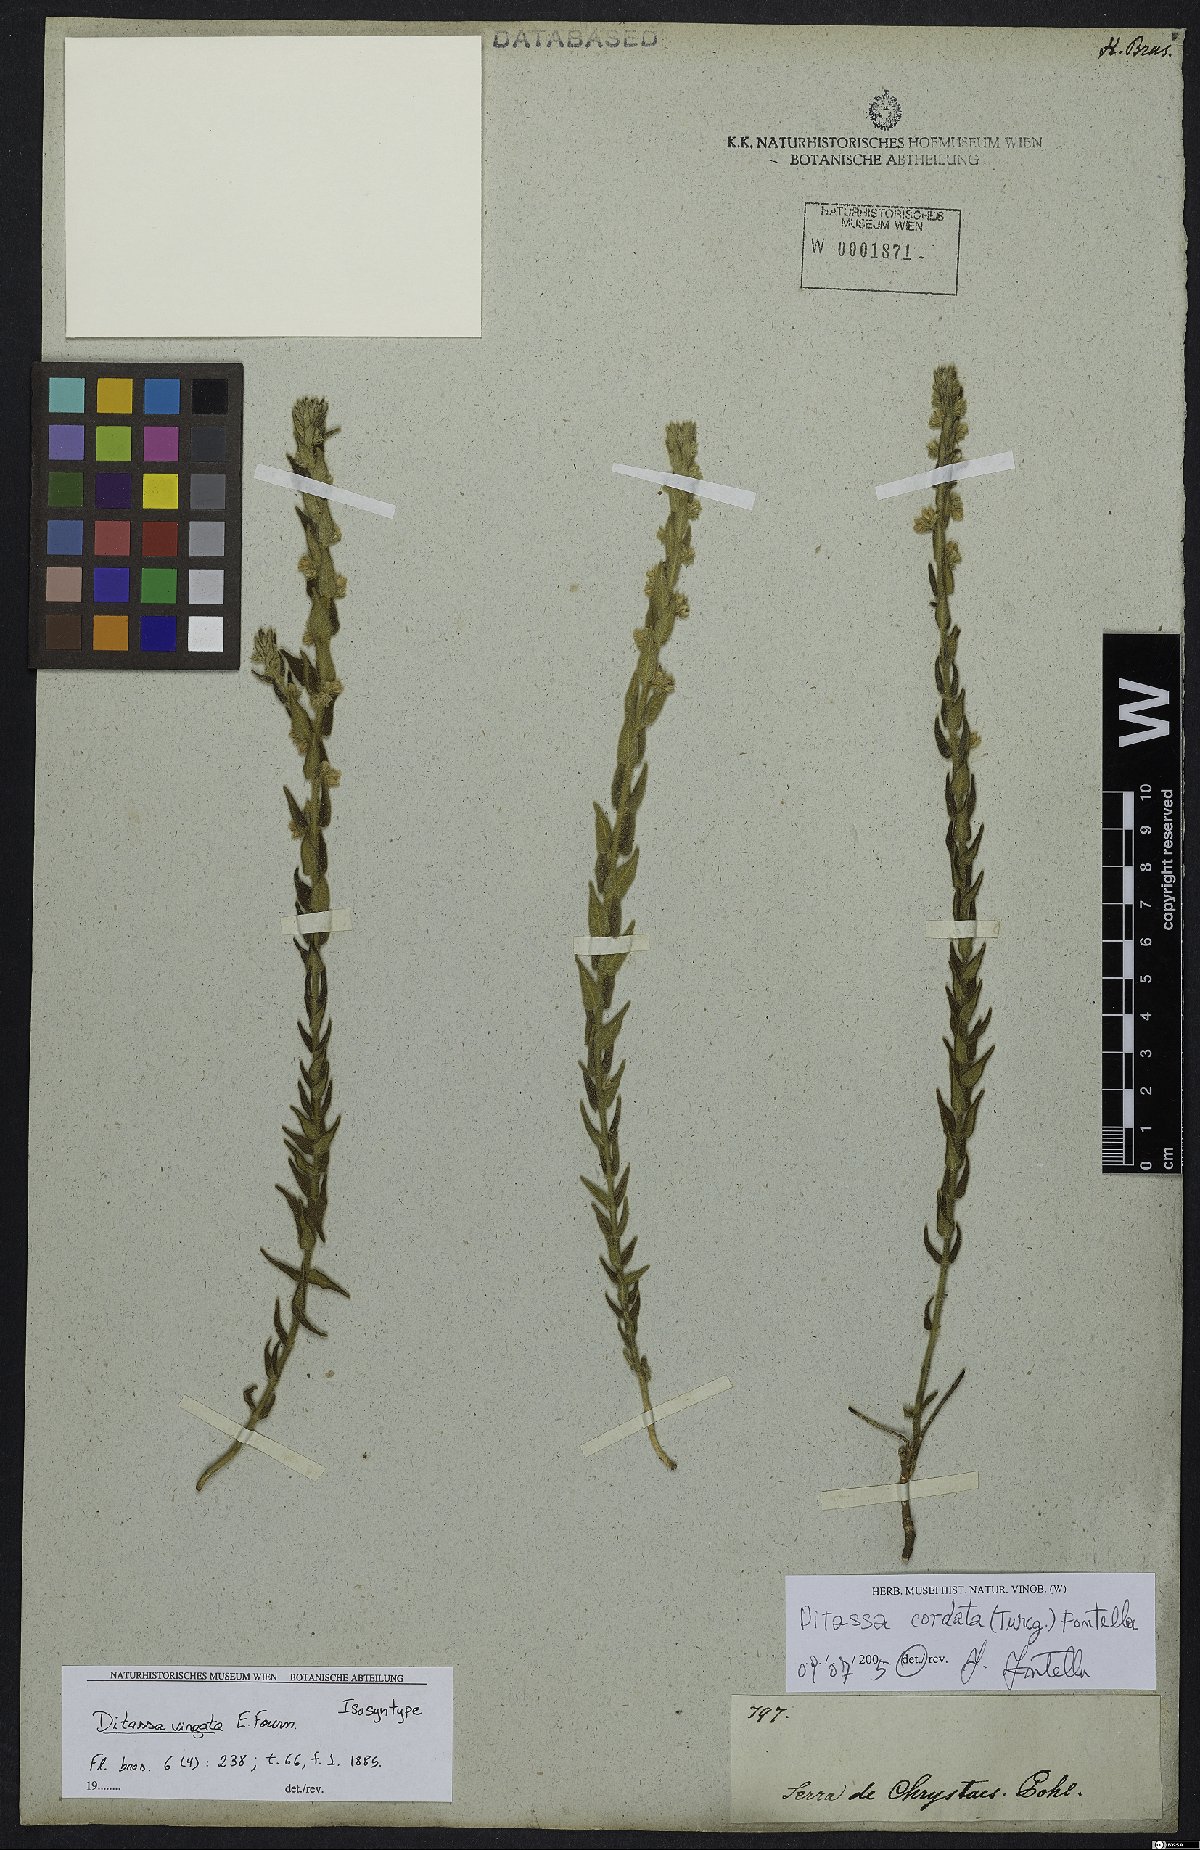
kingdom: Plantae
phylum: Tracheophyta
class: Magnoliopsida
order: Gentianales
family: Apocynaceae
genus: Minaria
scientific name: Minaria cordata
